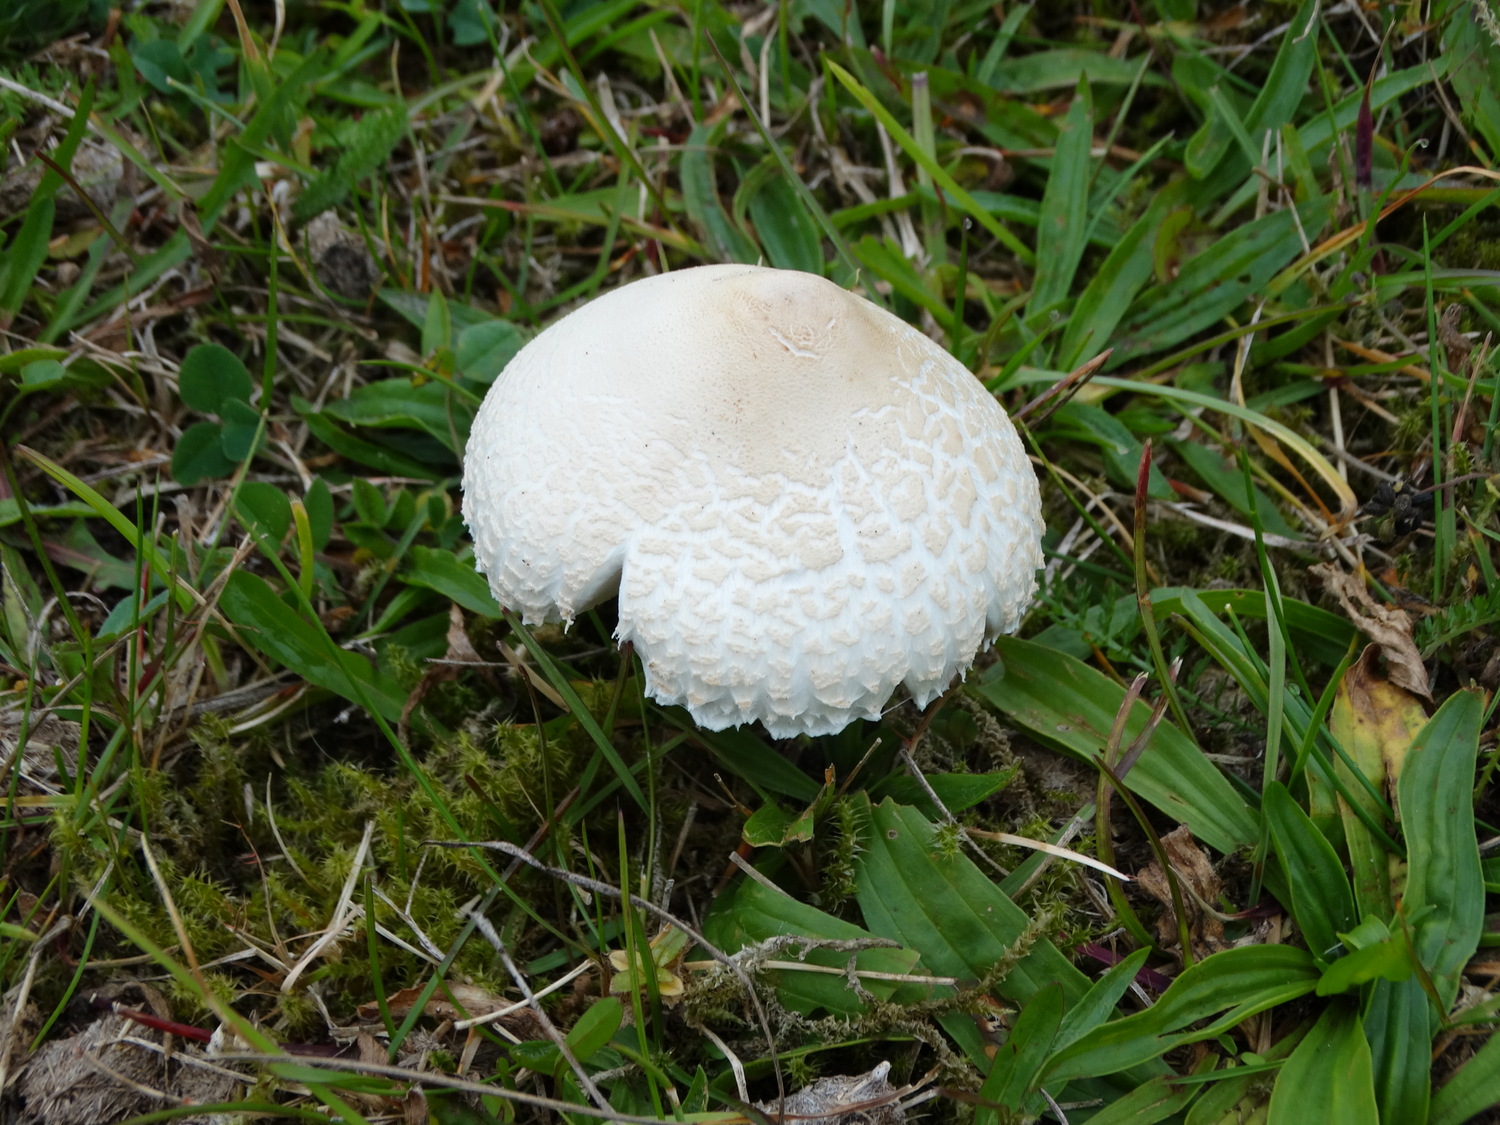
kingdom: Fungi
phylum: Basidiomycota
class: Agaricomycetes
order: Agaricales
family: Agaricaceae
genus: Macrolepiota
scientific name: Macrolepiota excoriata
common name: mark-kæmpeparasolhat
